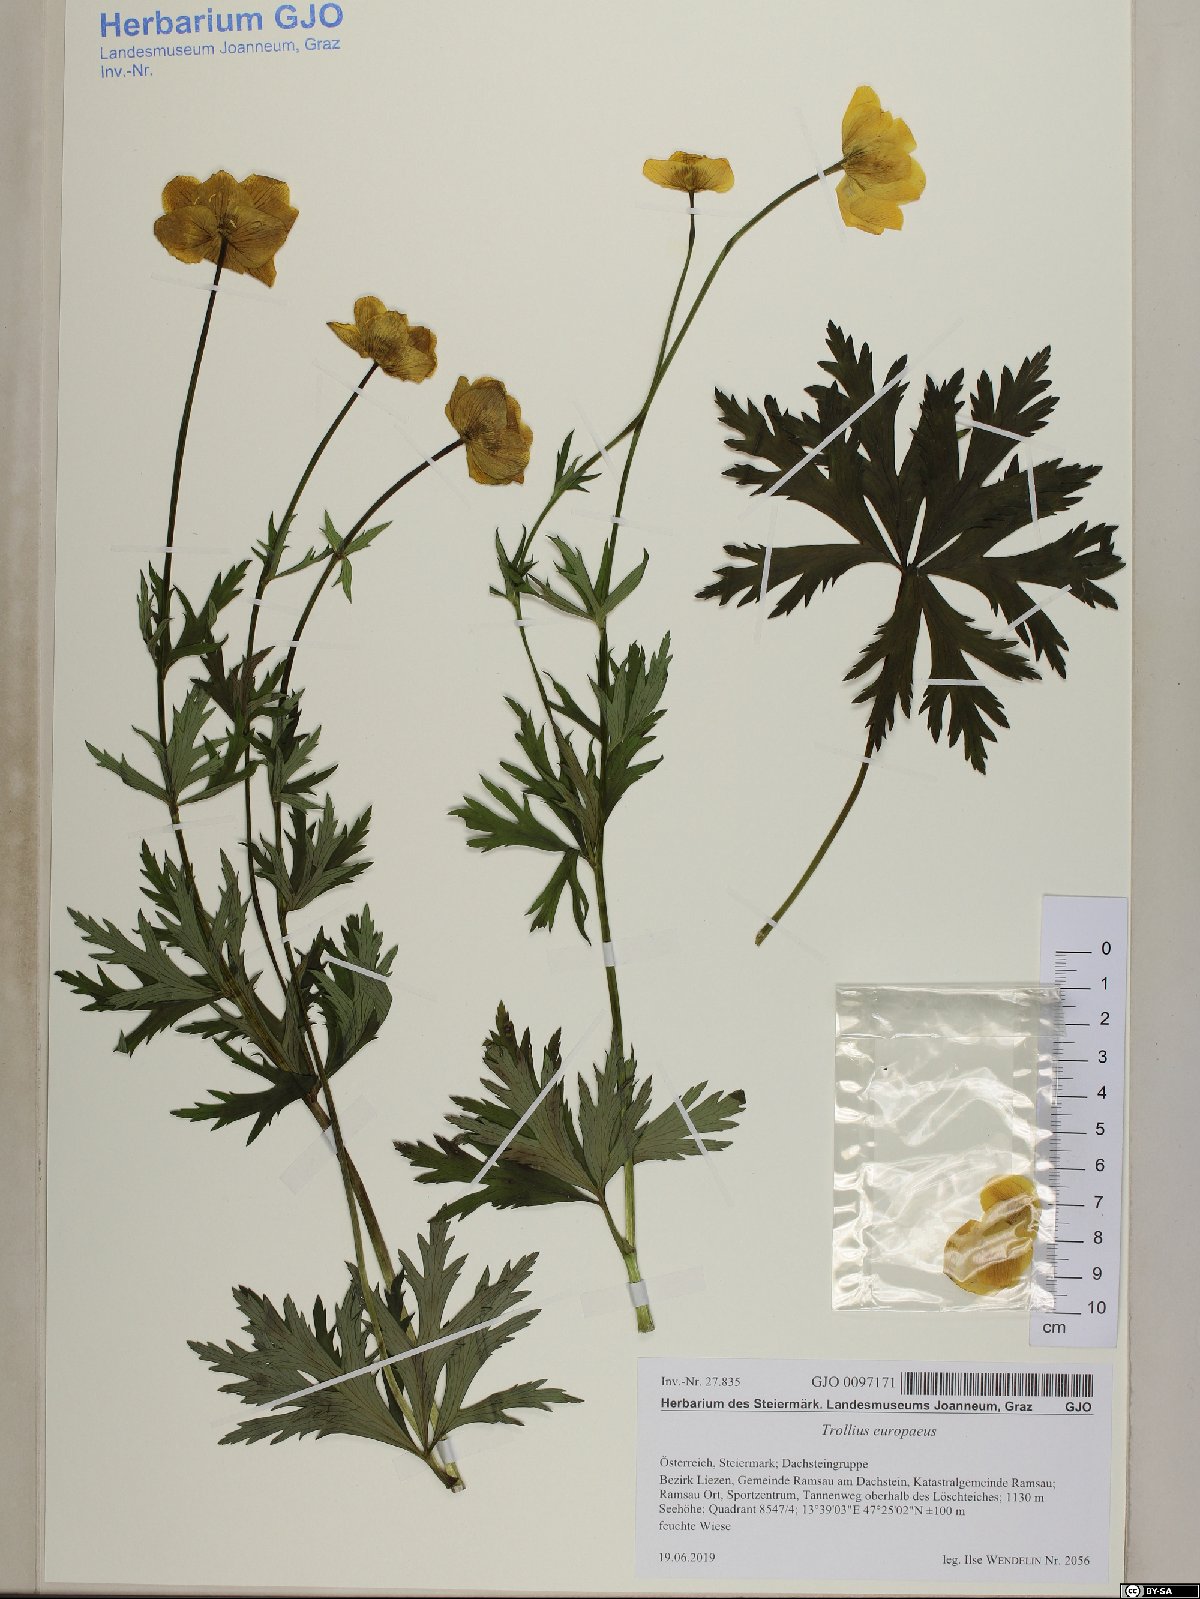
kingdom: Plantae
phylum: Tracheophyta
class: Magnoliopsida
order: Ranunculales
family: Ranunculaceae
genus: Trollius
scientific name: Trollius europaeus
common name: European globeflower
